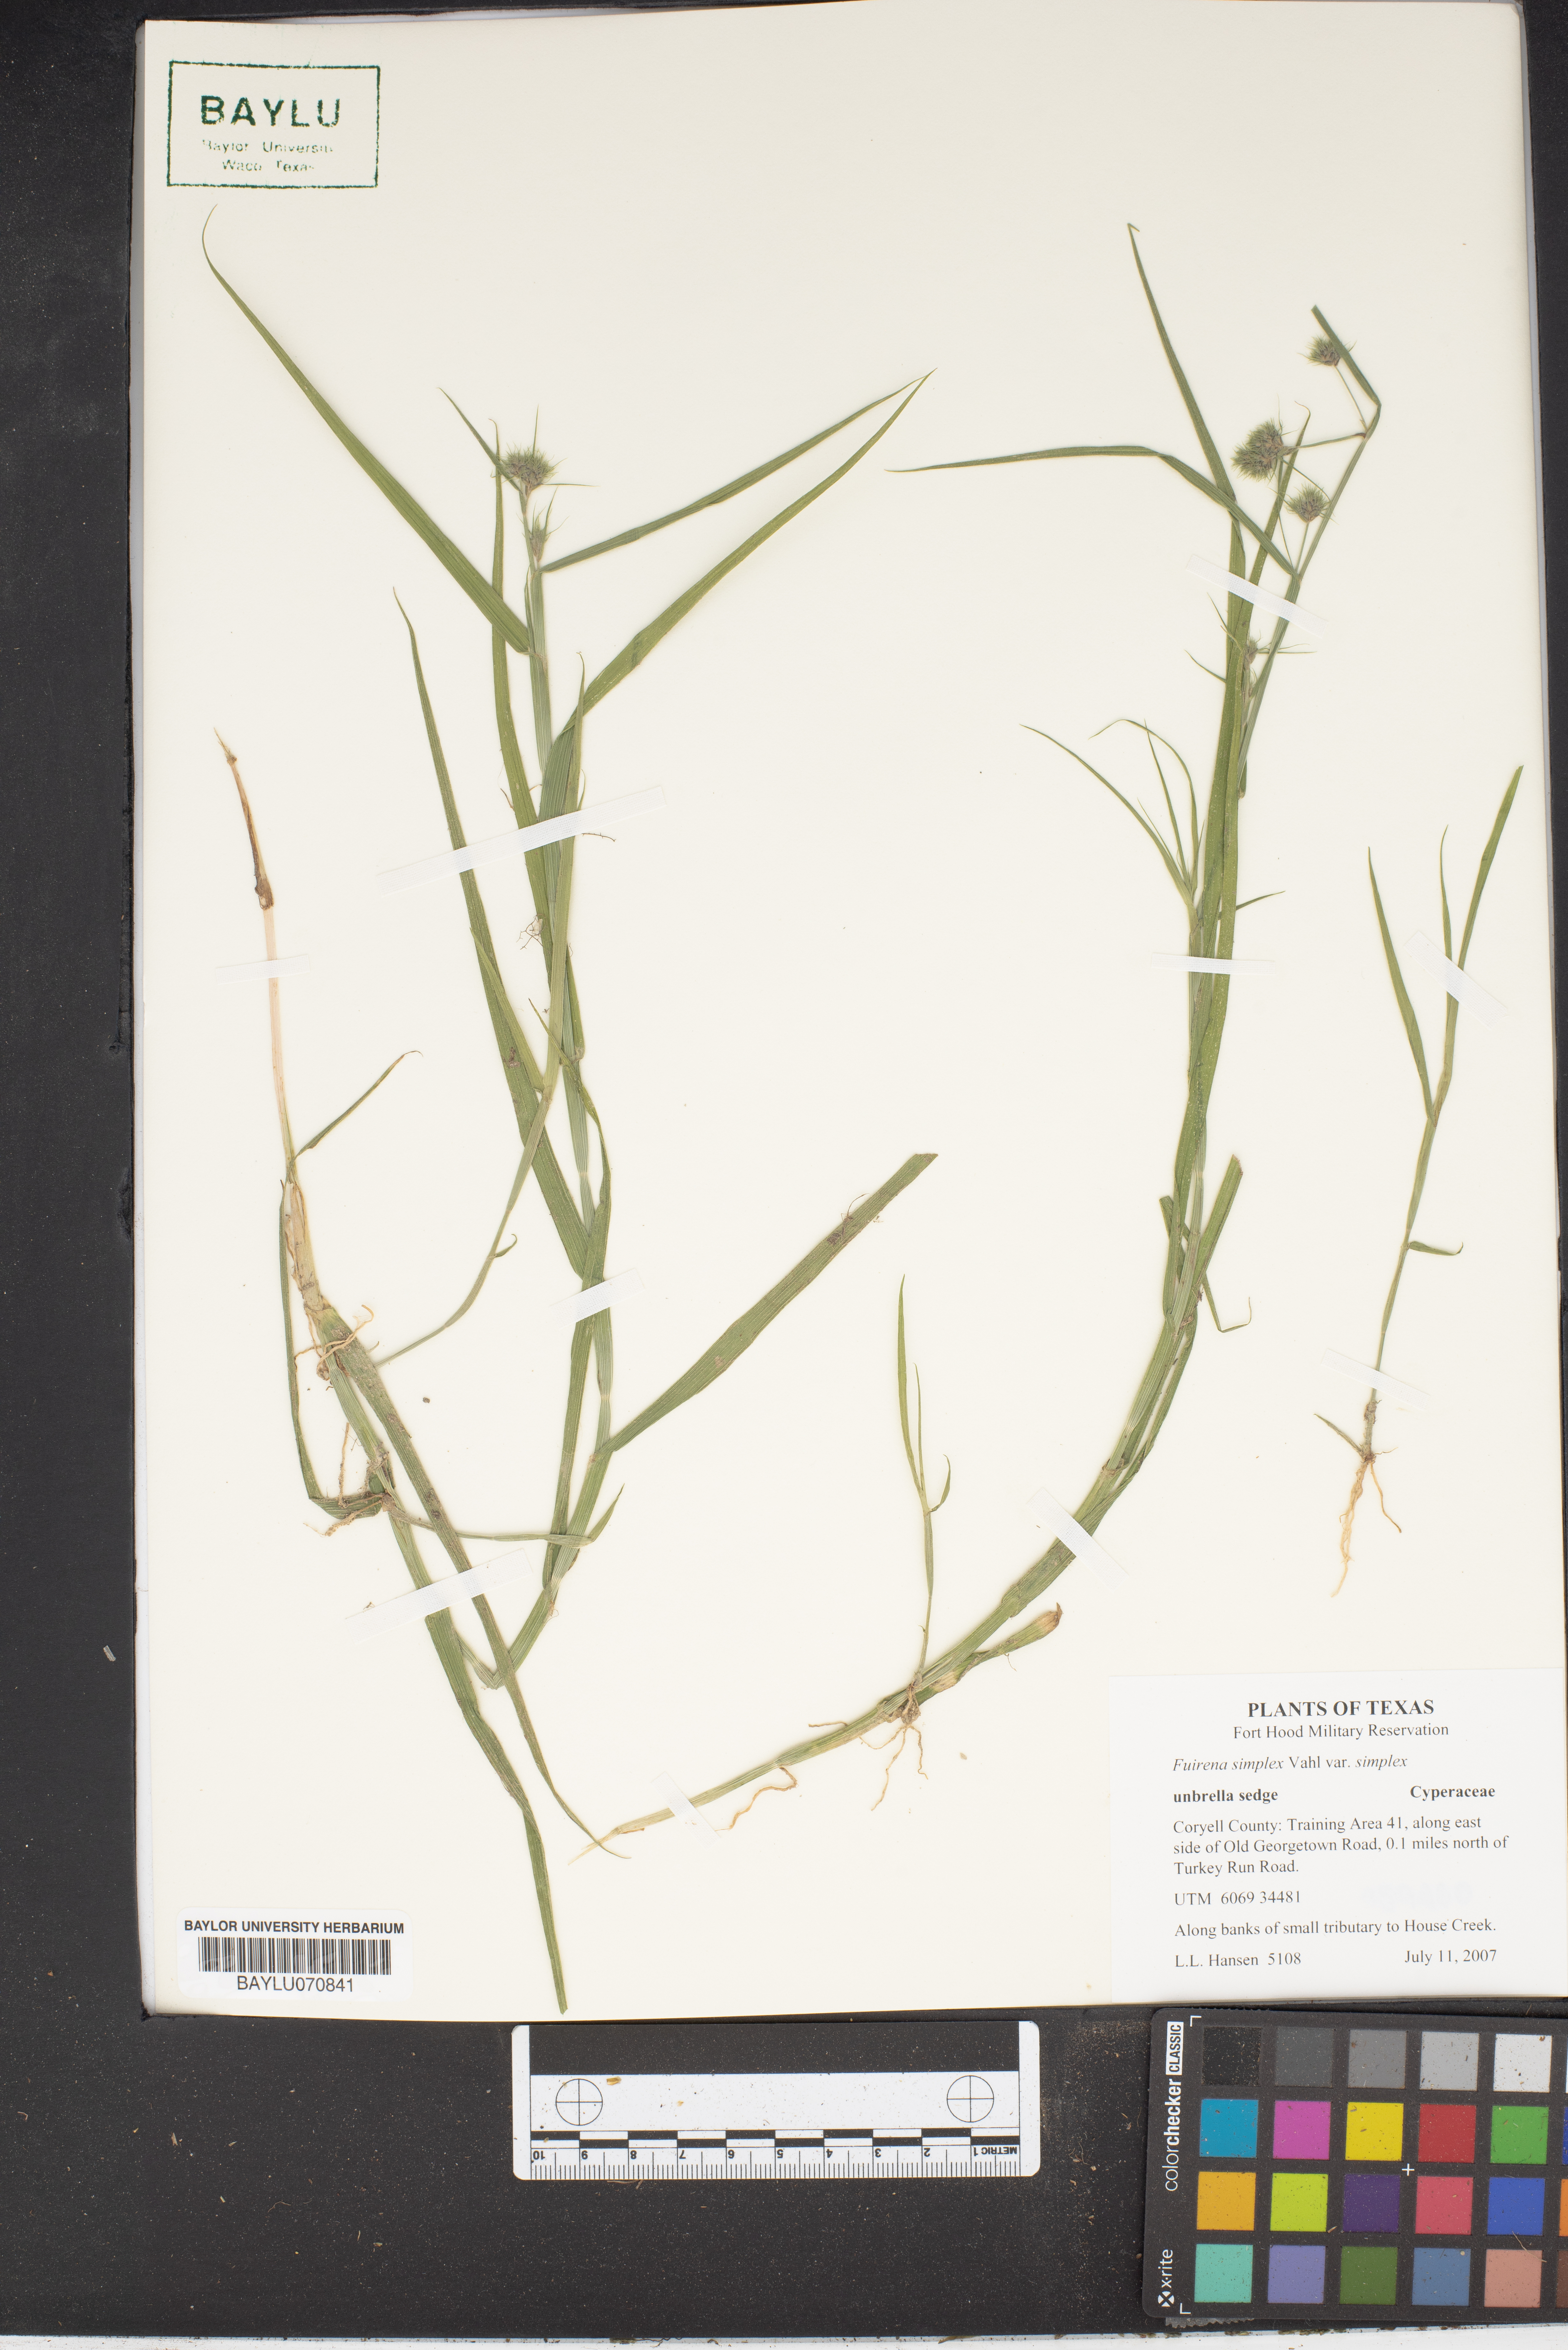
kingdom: Plantae
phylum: Tracheophyta
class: Liliopsida
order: Poales
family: Cyperaceae
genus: Fuirena
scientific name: Fuirena simplex
